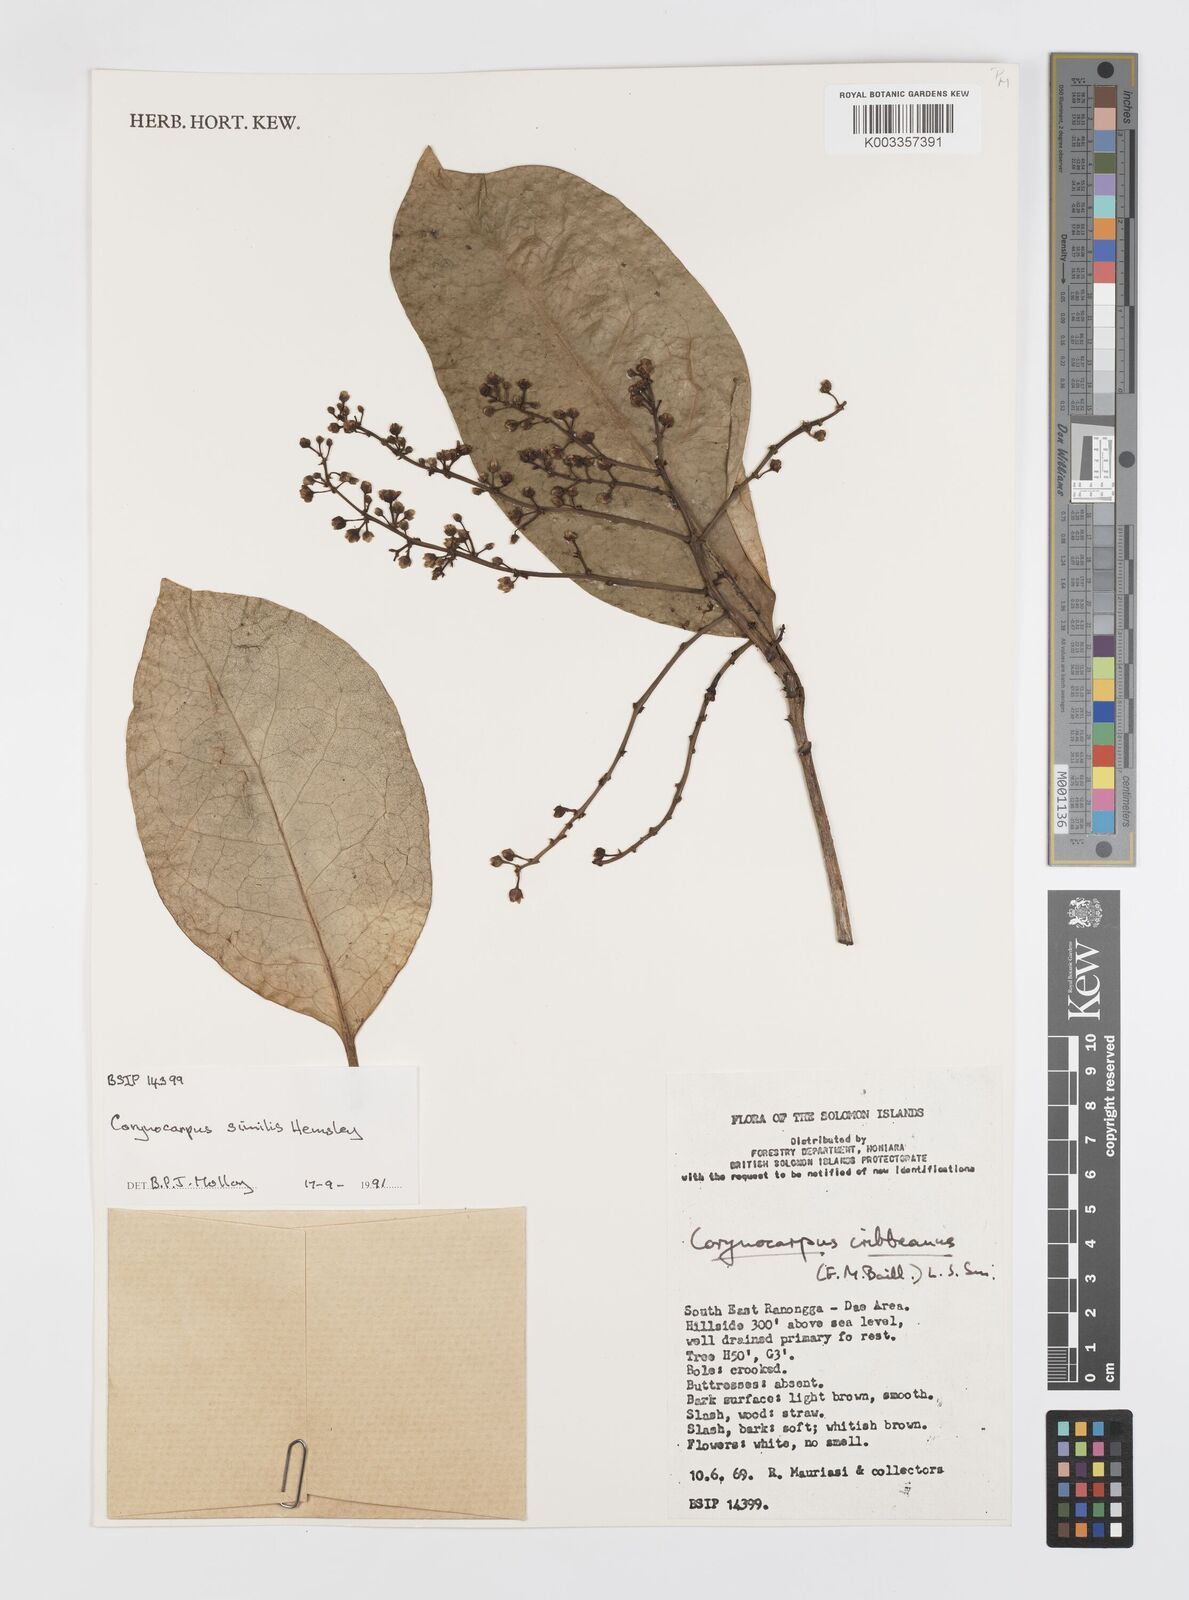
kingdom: Plantae
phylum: Tracheophyta
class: Magnoliopsida
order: Cucurbitales
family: Corynocarpaceae
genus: Corynocarpus
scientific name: Corynocarpus similis
